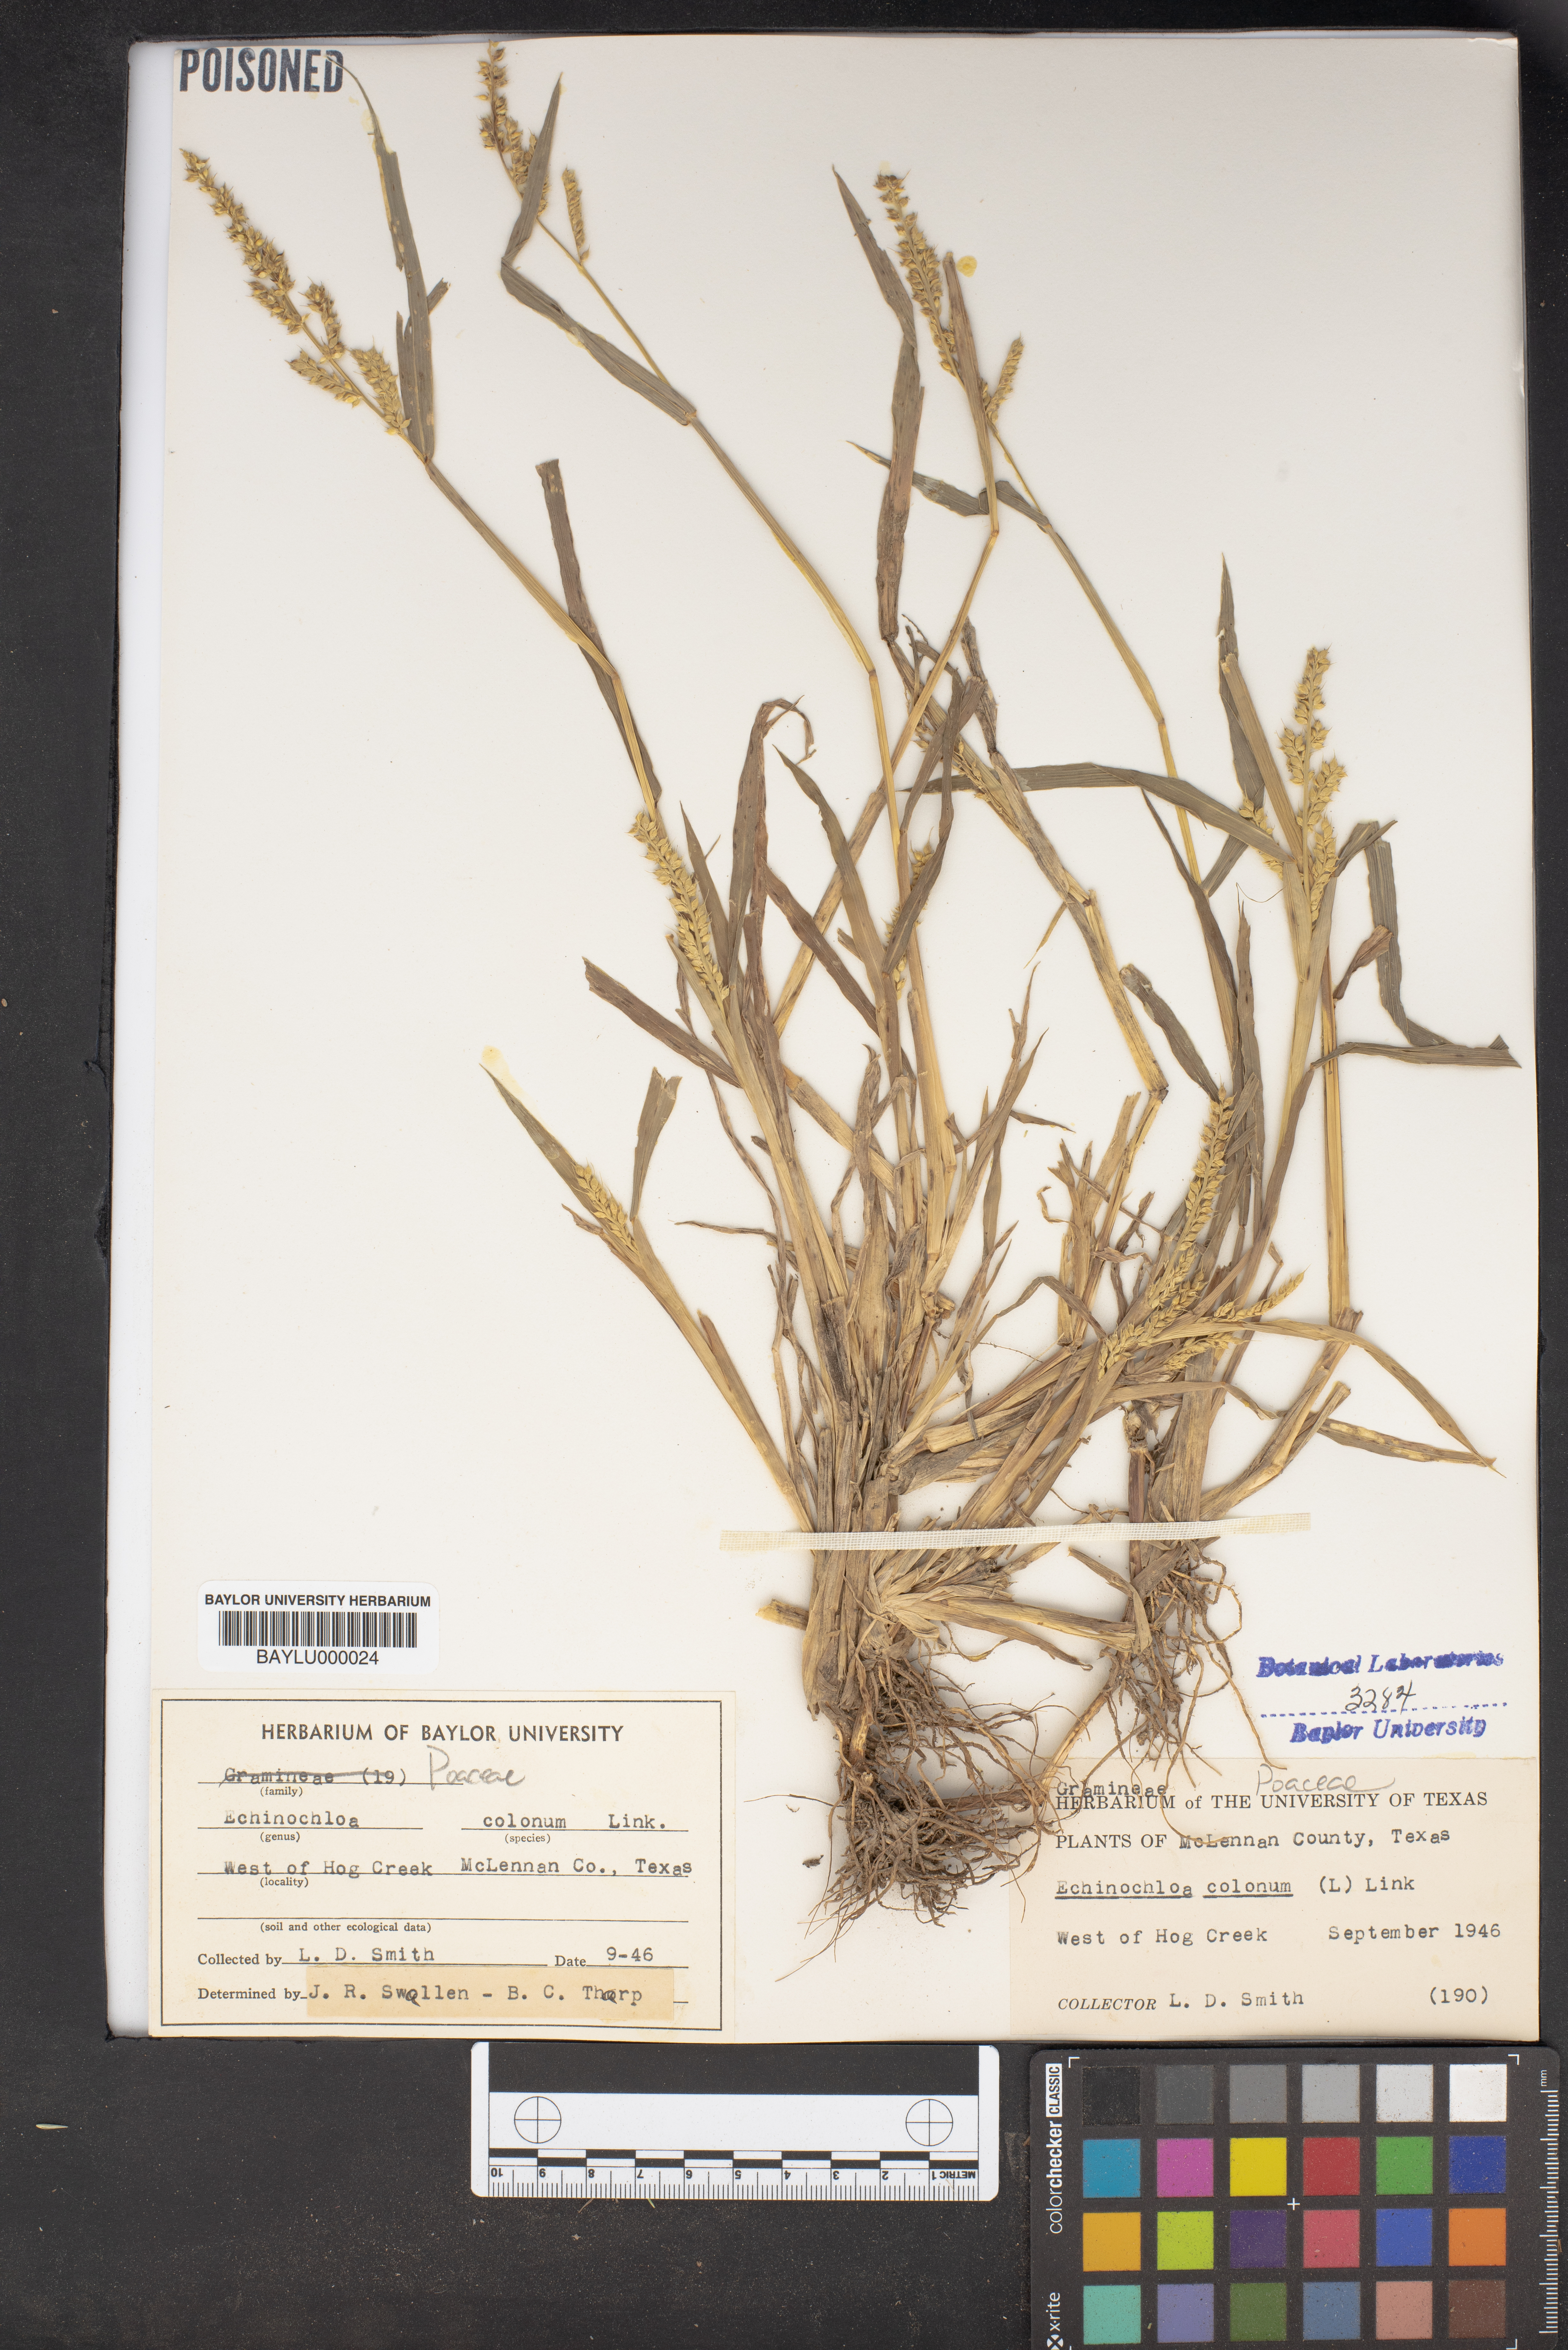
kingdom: Plantae
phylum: Tracheophyta
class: Liliopsida
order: Poales
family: Poaceae
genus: Echinochloa
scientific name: Echinochloa colonum
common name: Jungle rice
